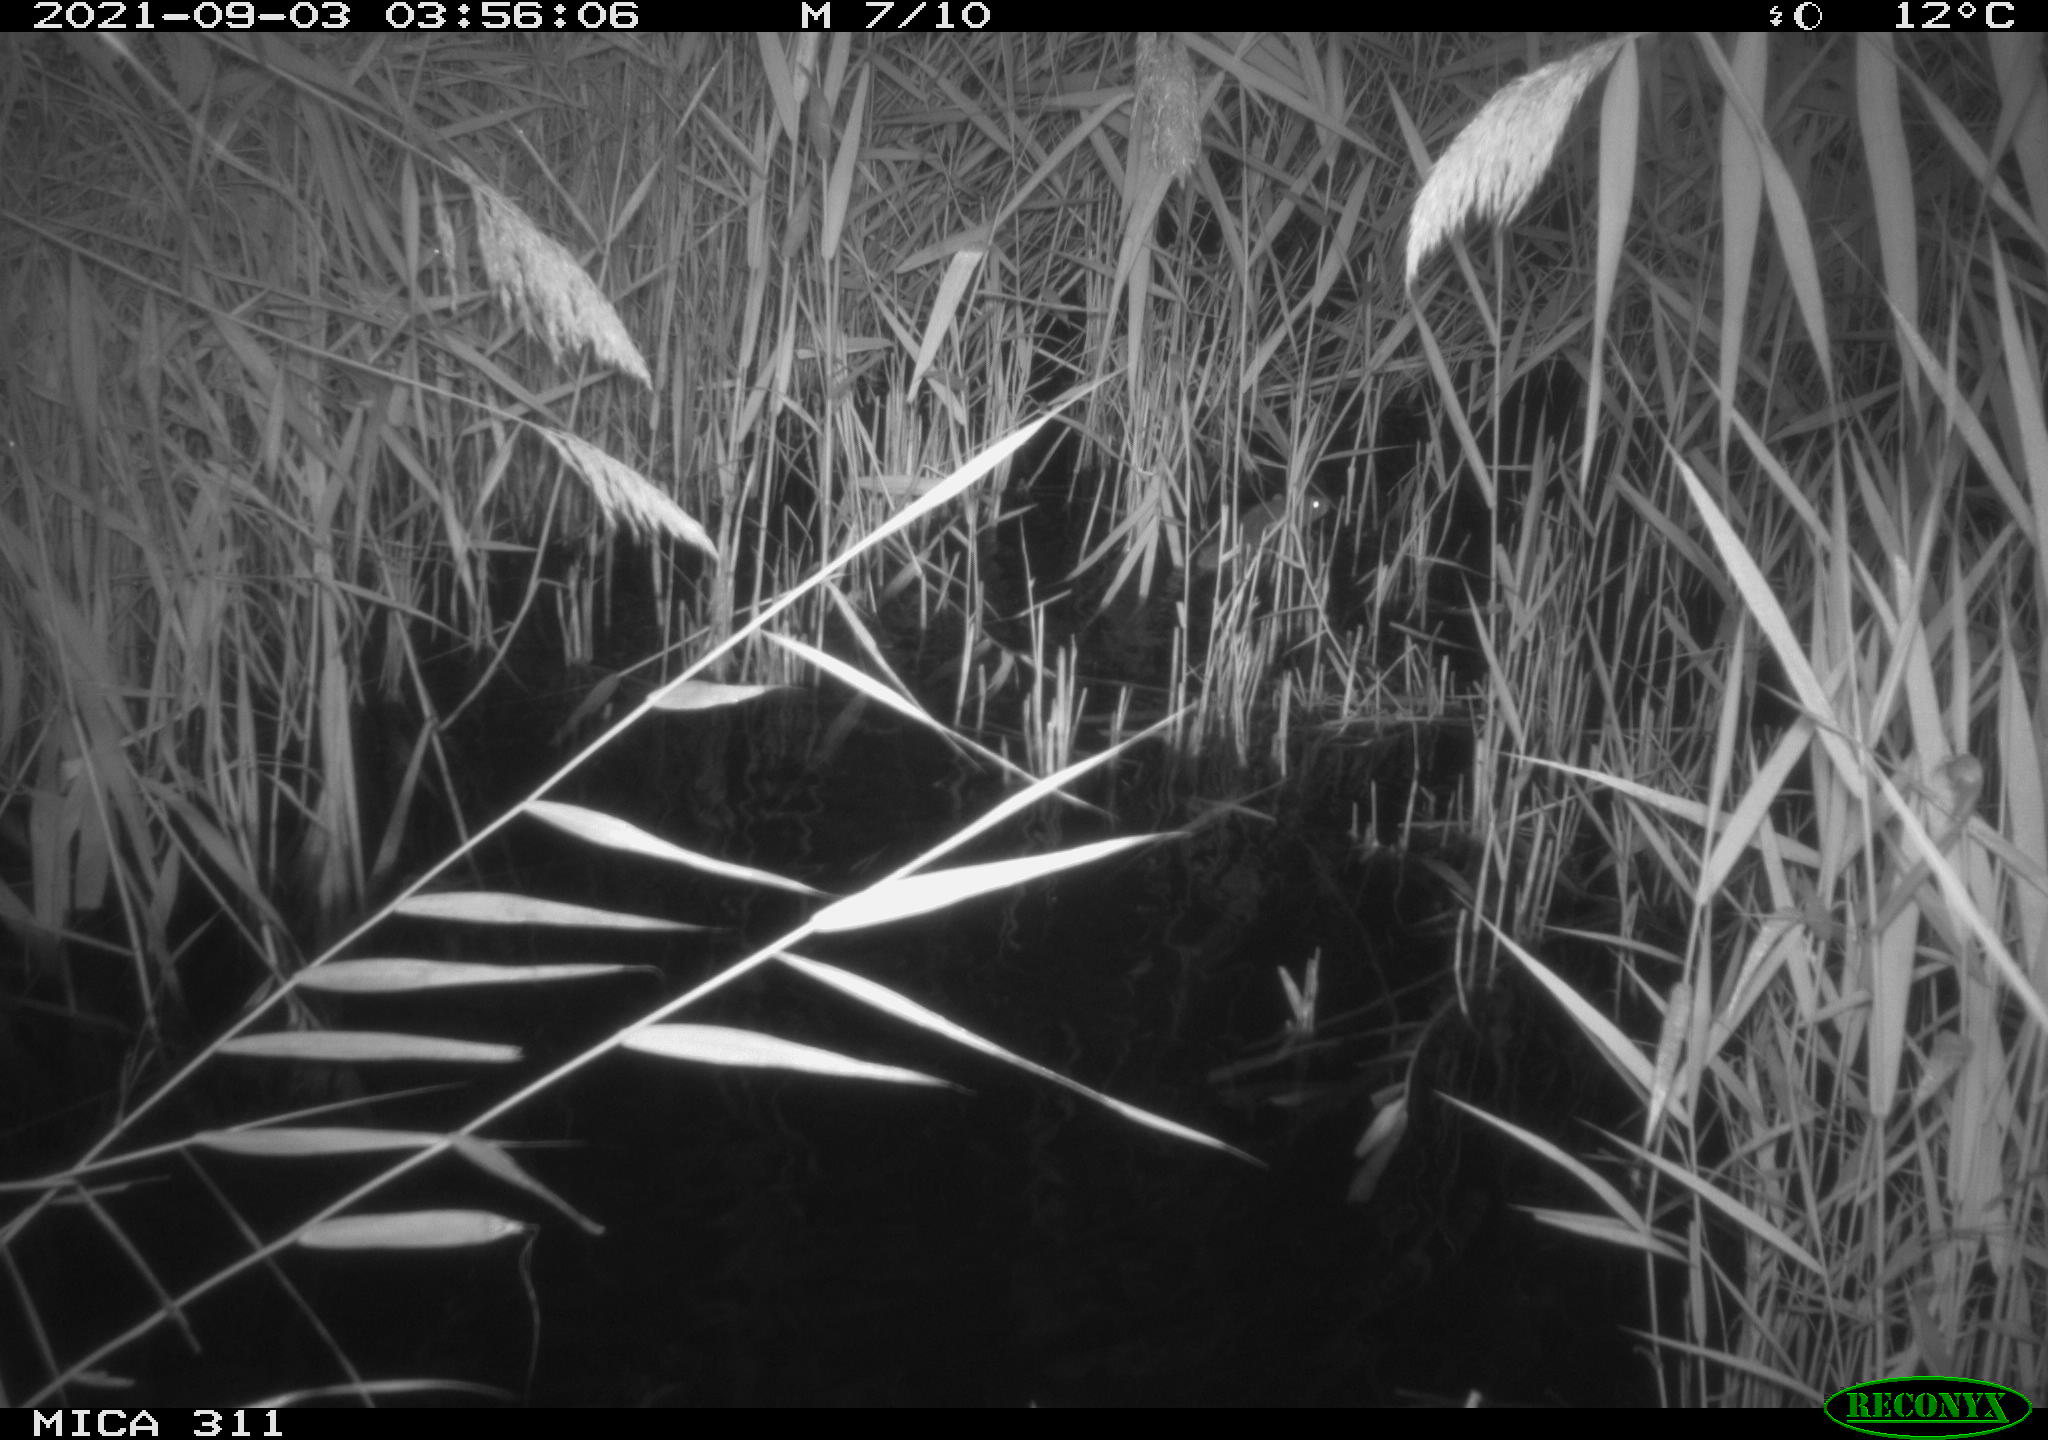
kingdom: Animalia
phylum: Chordata
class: Mammalia
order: Rodentia
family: Muridae
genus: Rattus
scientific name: Rattus norvegicus
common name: Brown rat
